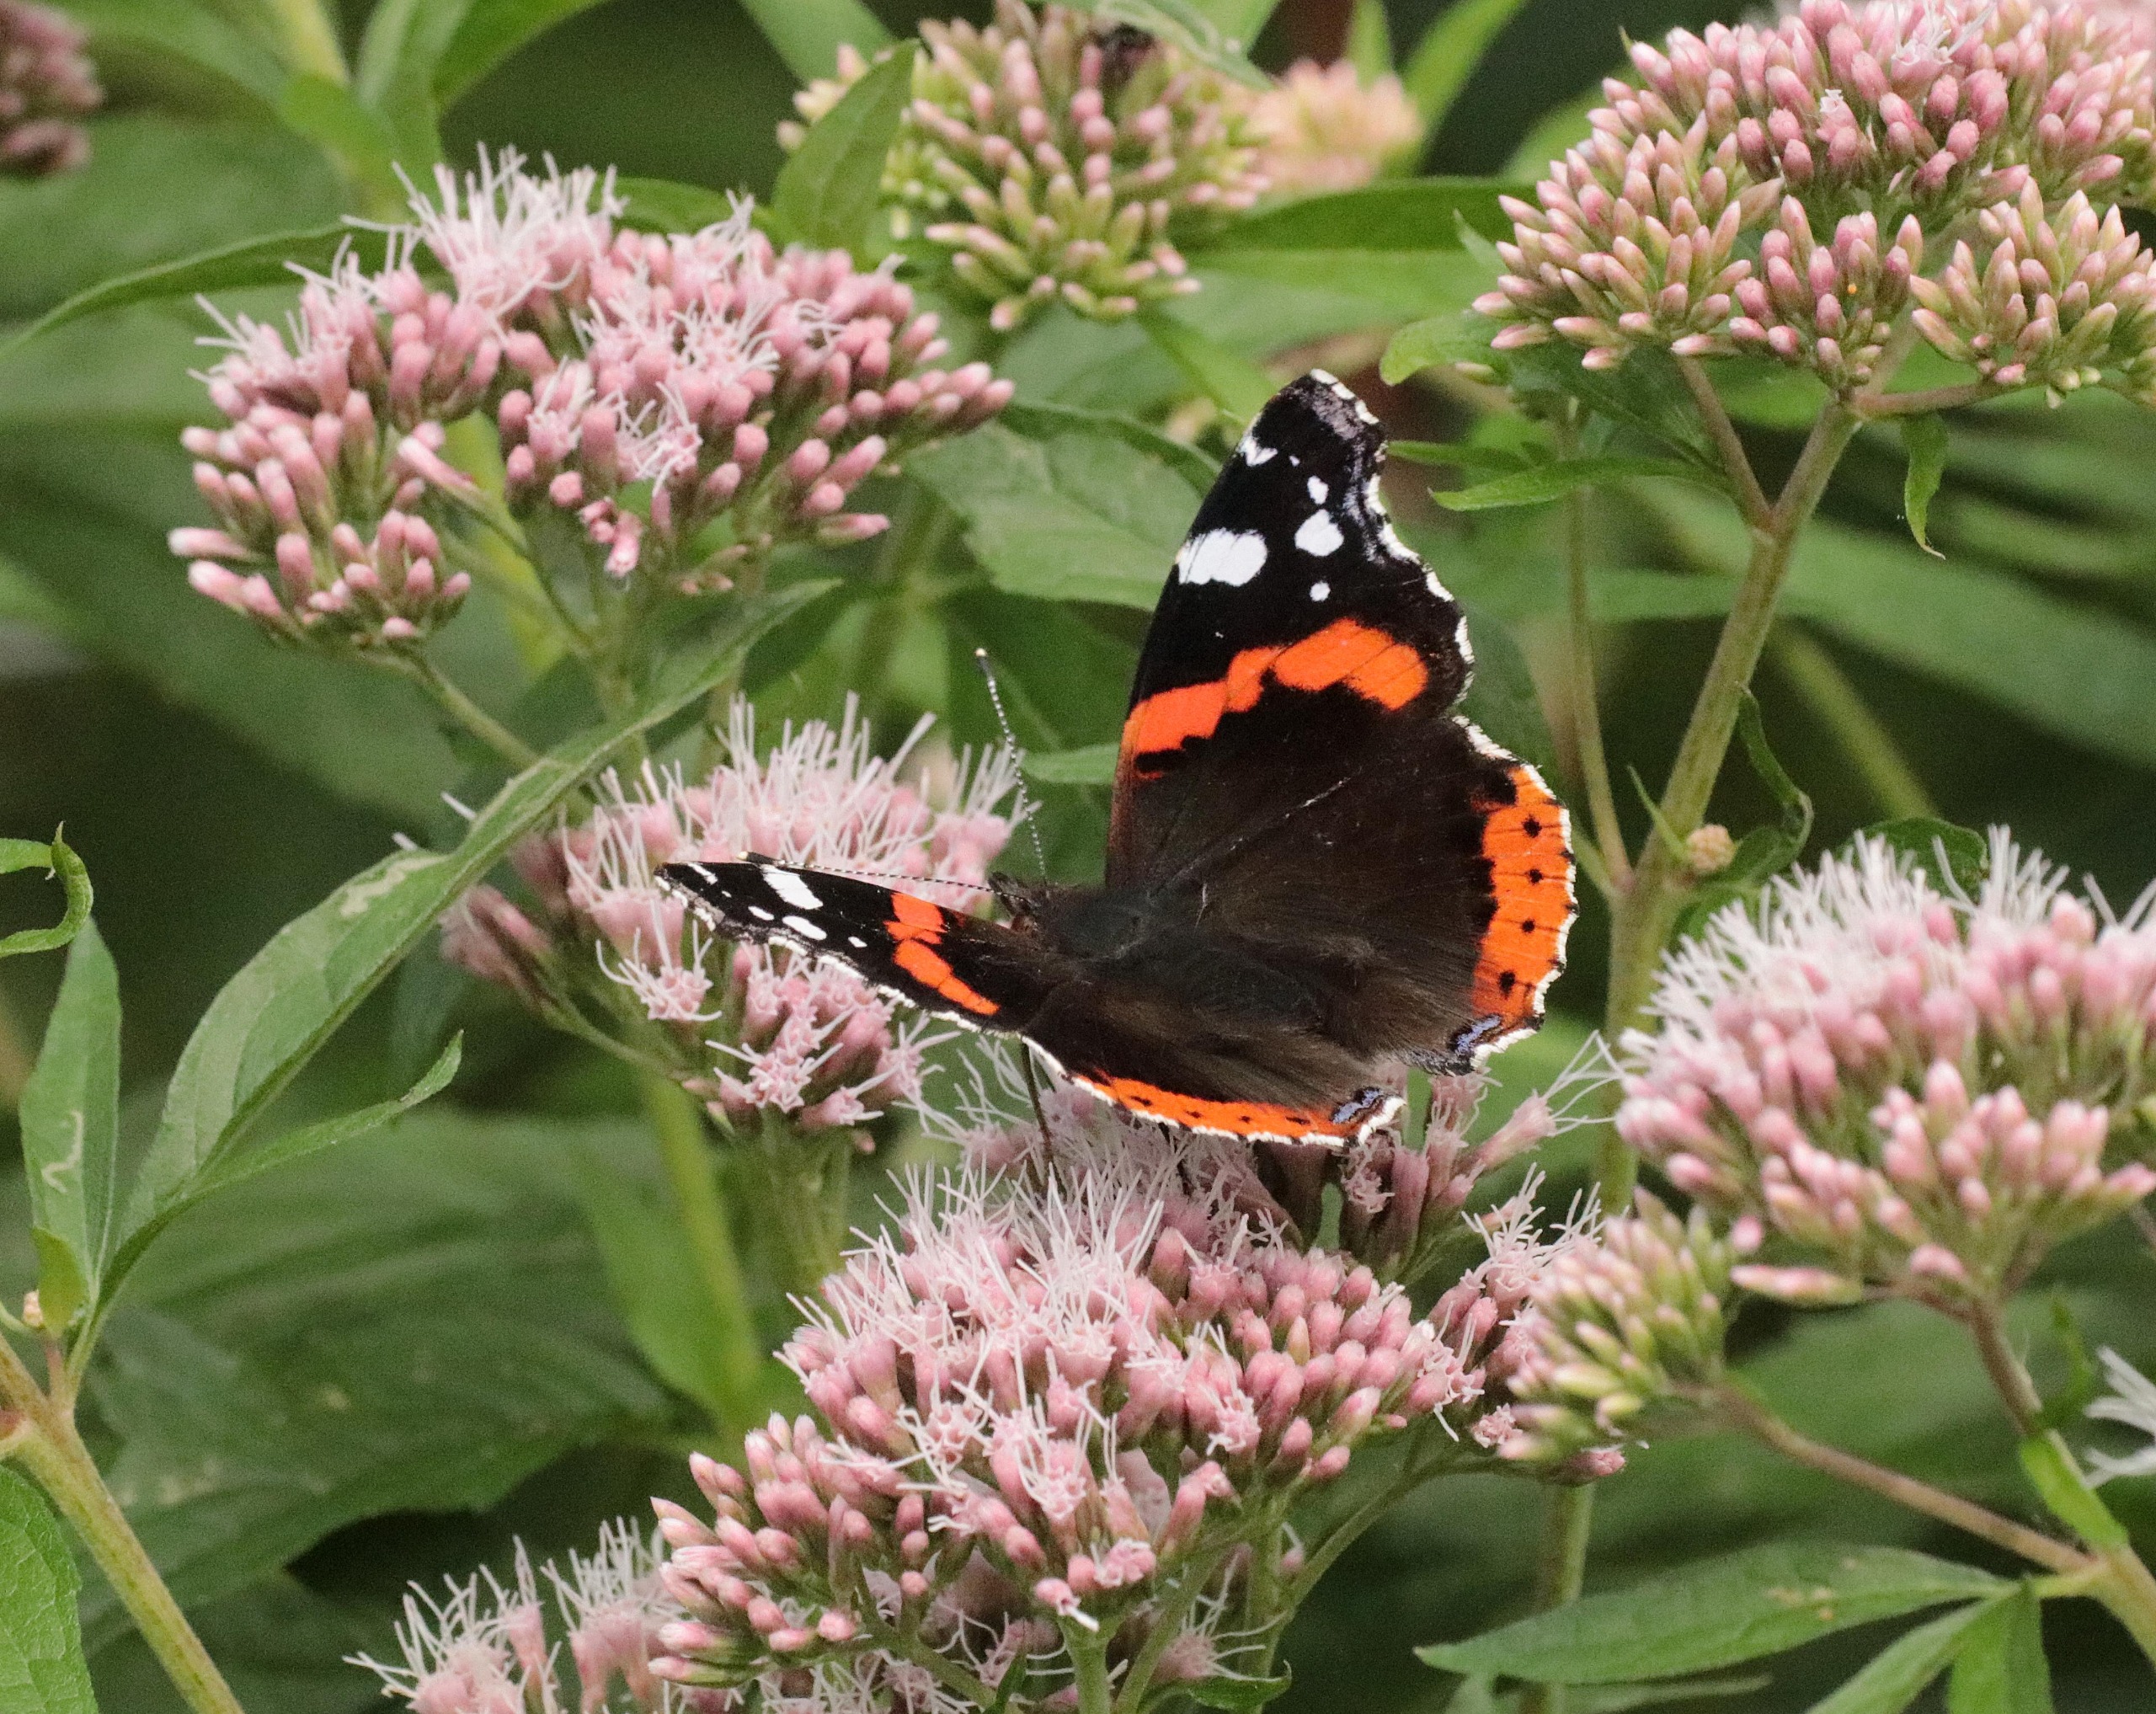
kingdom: Animalia
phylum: Arthropoda
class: Insecta
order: Lepidoptera
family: Nymphalidae
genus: Vanessa
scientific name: Vanessa atalanta
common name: Admiral
